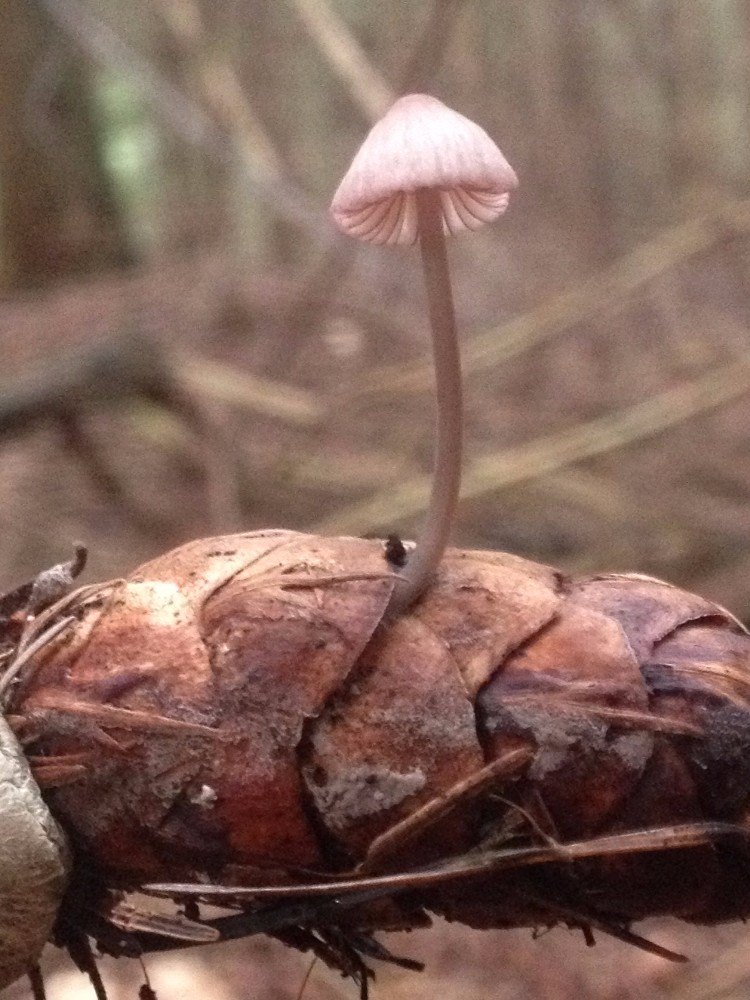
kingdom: Fungi
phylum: Basidiomycota
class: Agaricomycetes
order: Agaricales
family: Mycenaceae
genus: Mycena
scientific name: Mycena sanguinolenta
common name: rødmælket huesvamp
